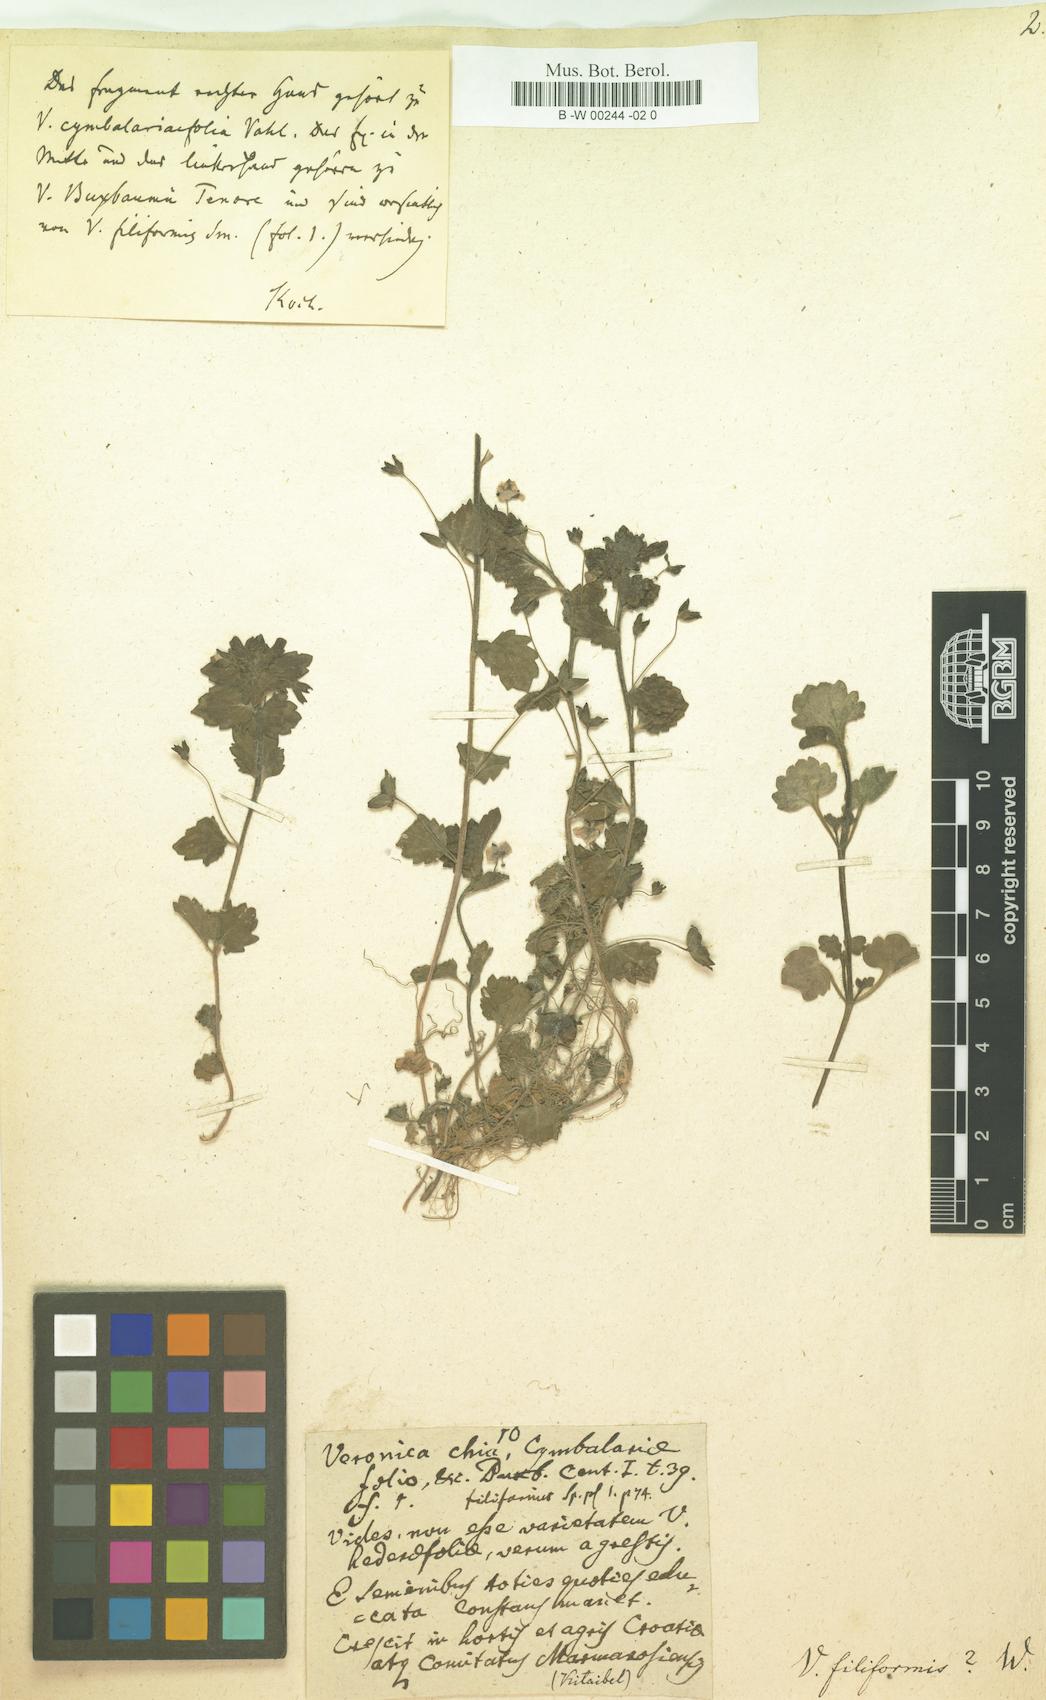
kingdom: Plantae
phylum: Tracheophyta
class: Magnoliopsida
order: Lamiales
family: Plantaginaceae
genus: Veronica
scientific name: Veronica filiformis
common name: Slender speedwell
